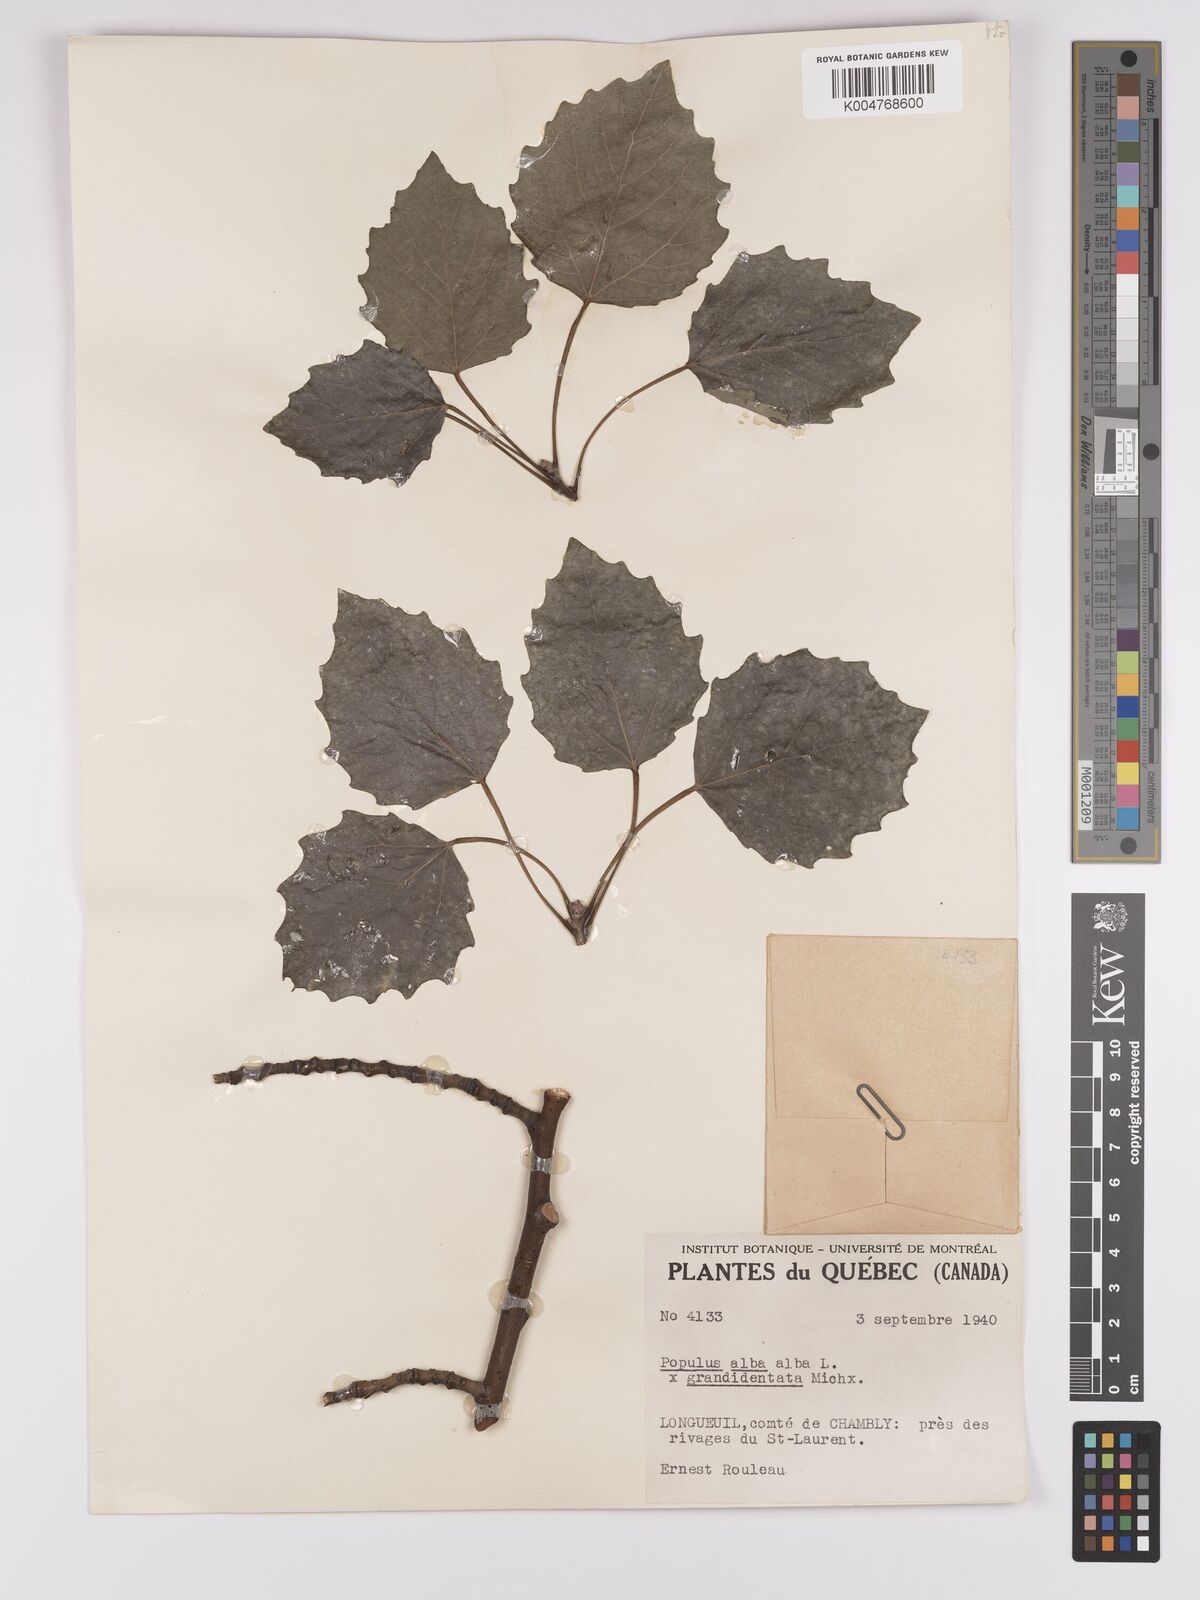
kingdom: Plantae
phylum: Tracheophyta
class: Magnoliopsida
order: Malpighiales
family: Salicaceae
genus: Populus
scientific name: Populus
